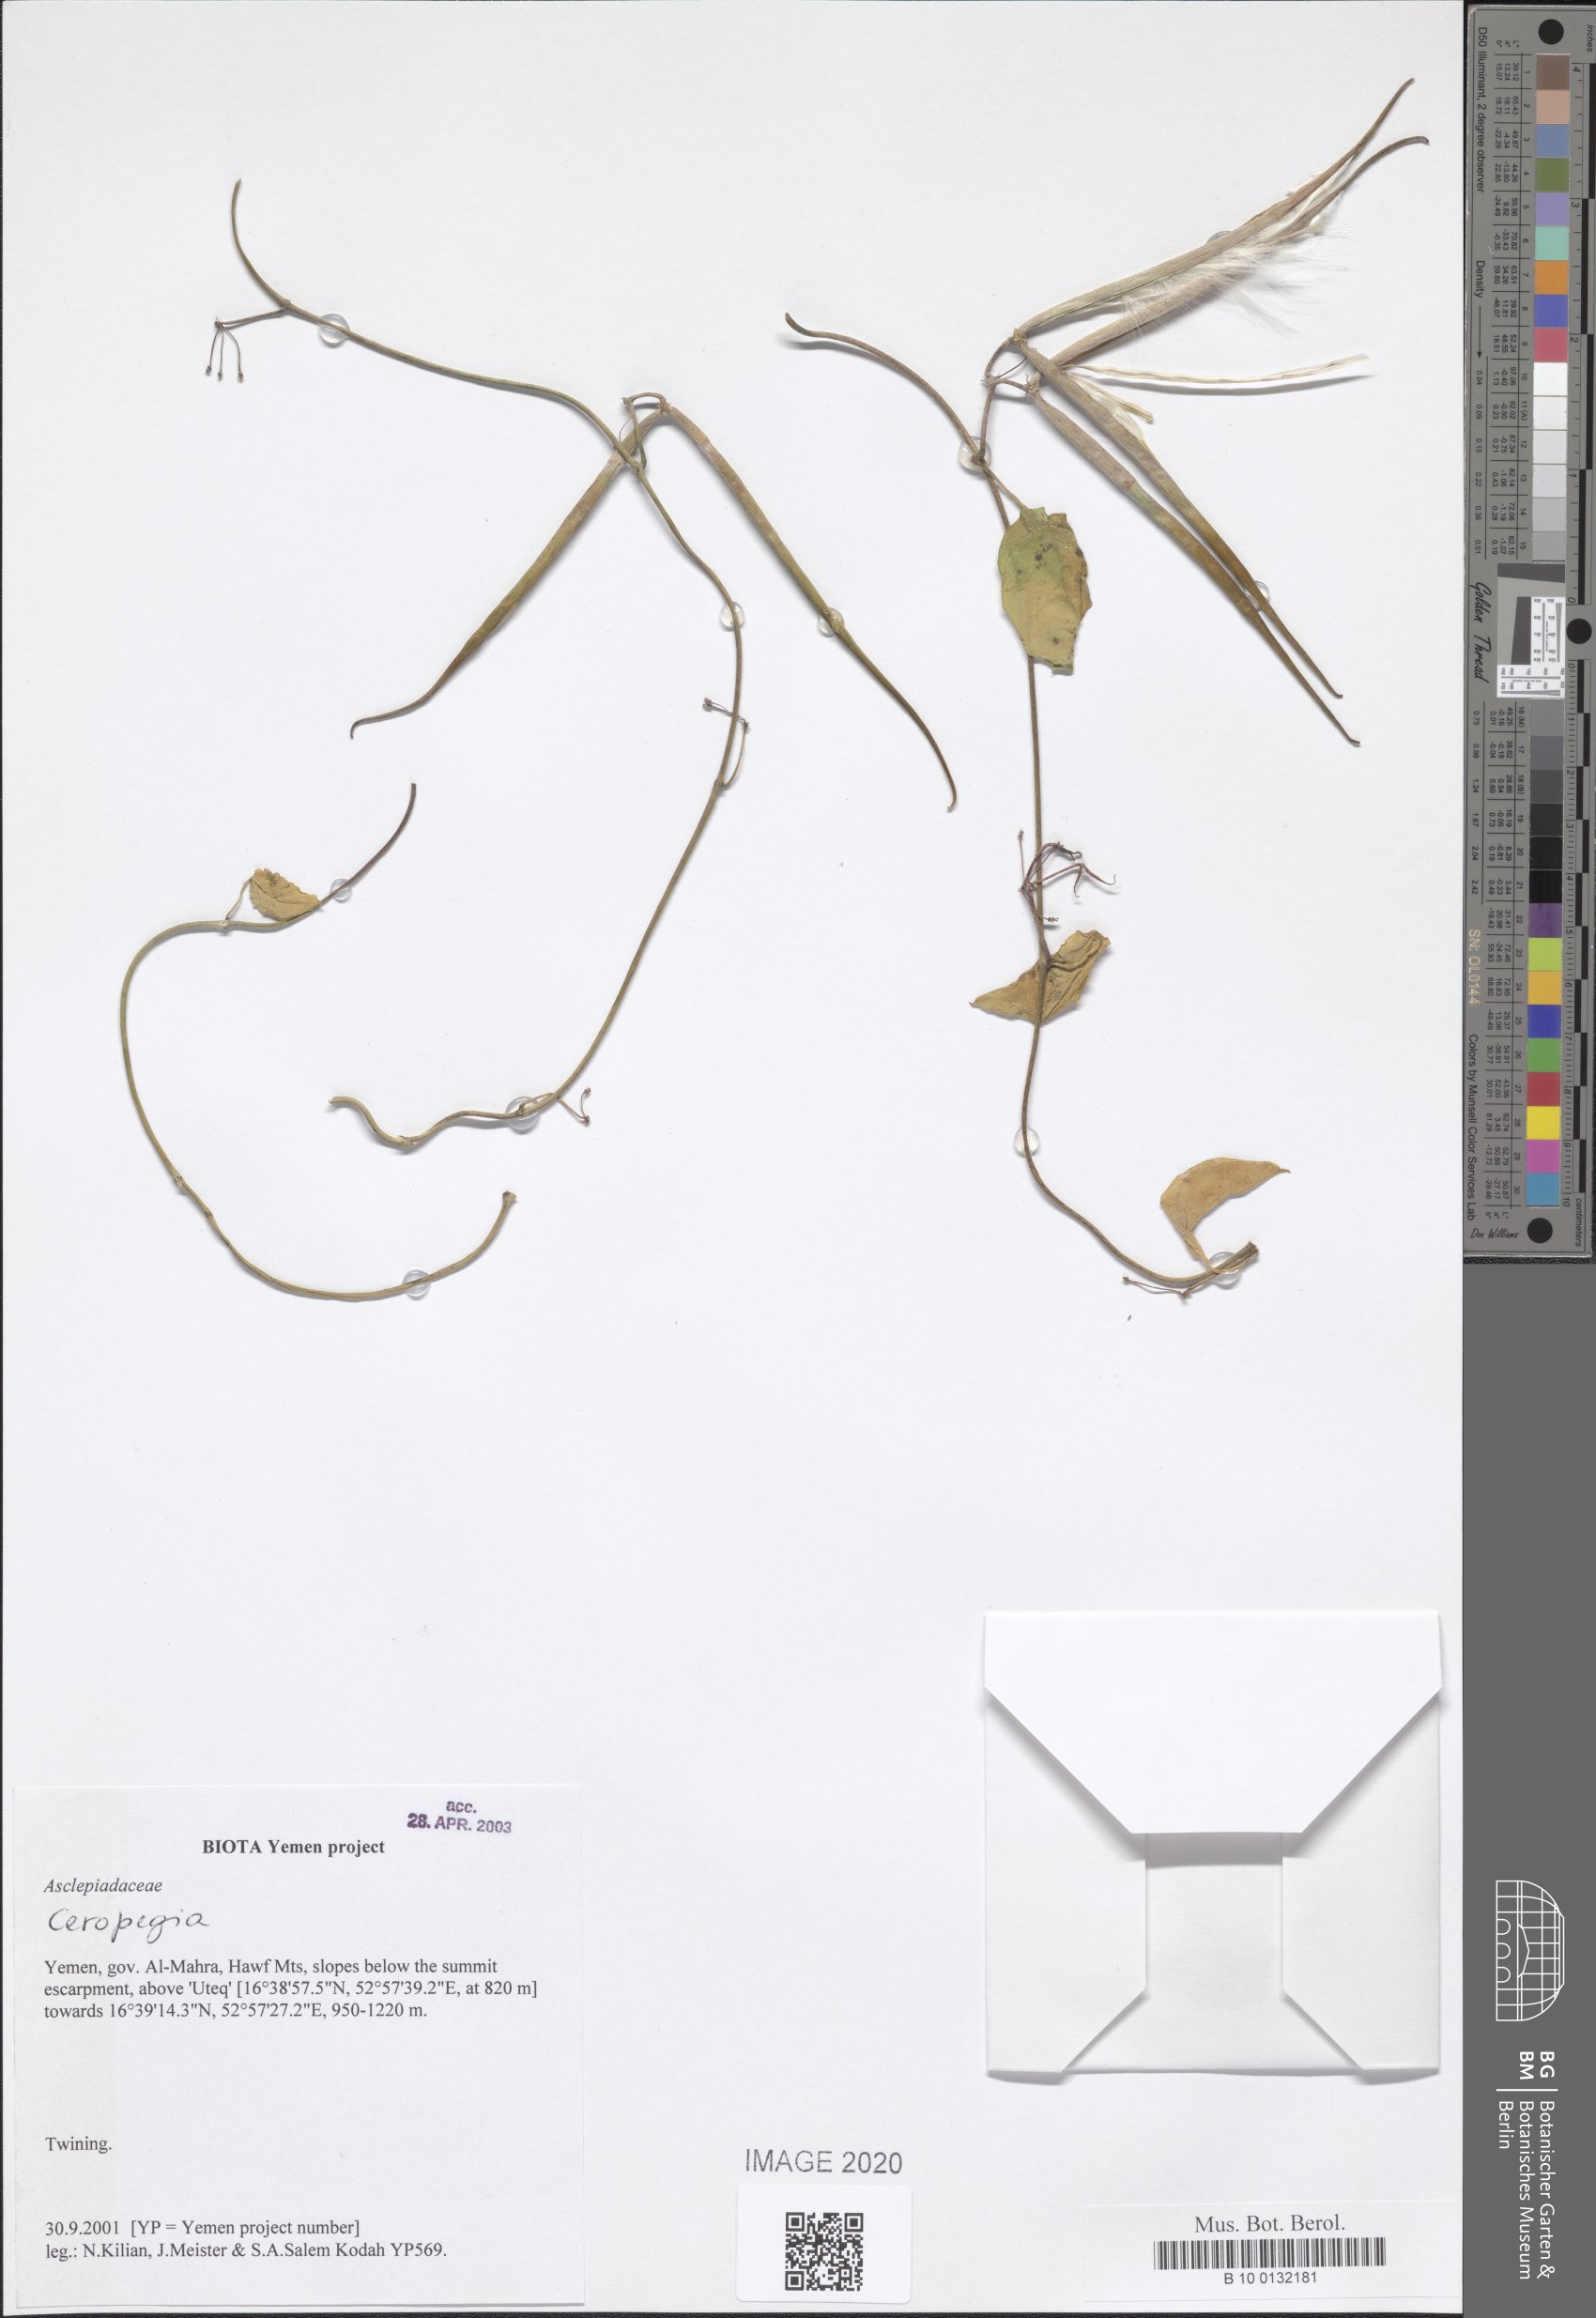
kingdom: Plantae
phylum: Tracheophyta
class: Magnoliopsida
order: Gentianales
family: Apocynaceae
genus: Ceropegia
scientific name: Ceropegia bulbosa
